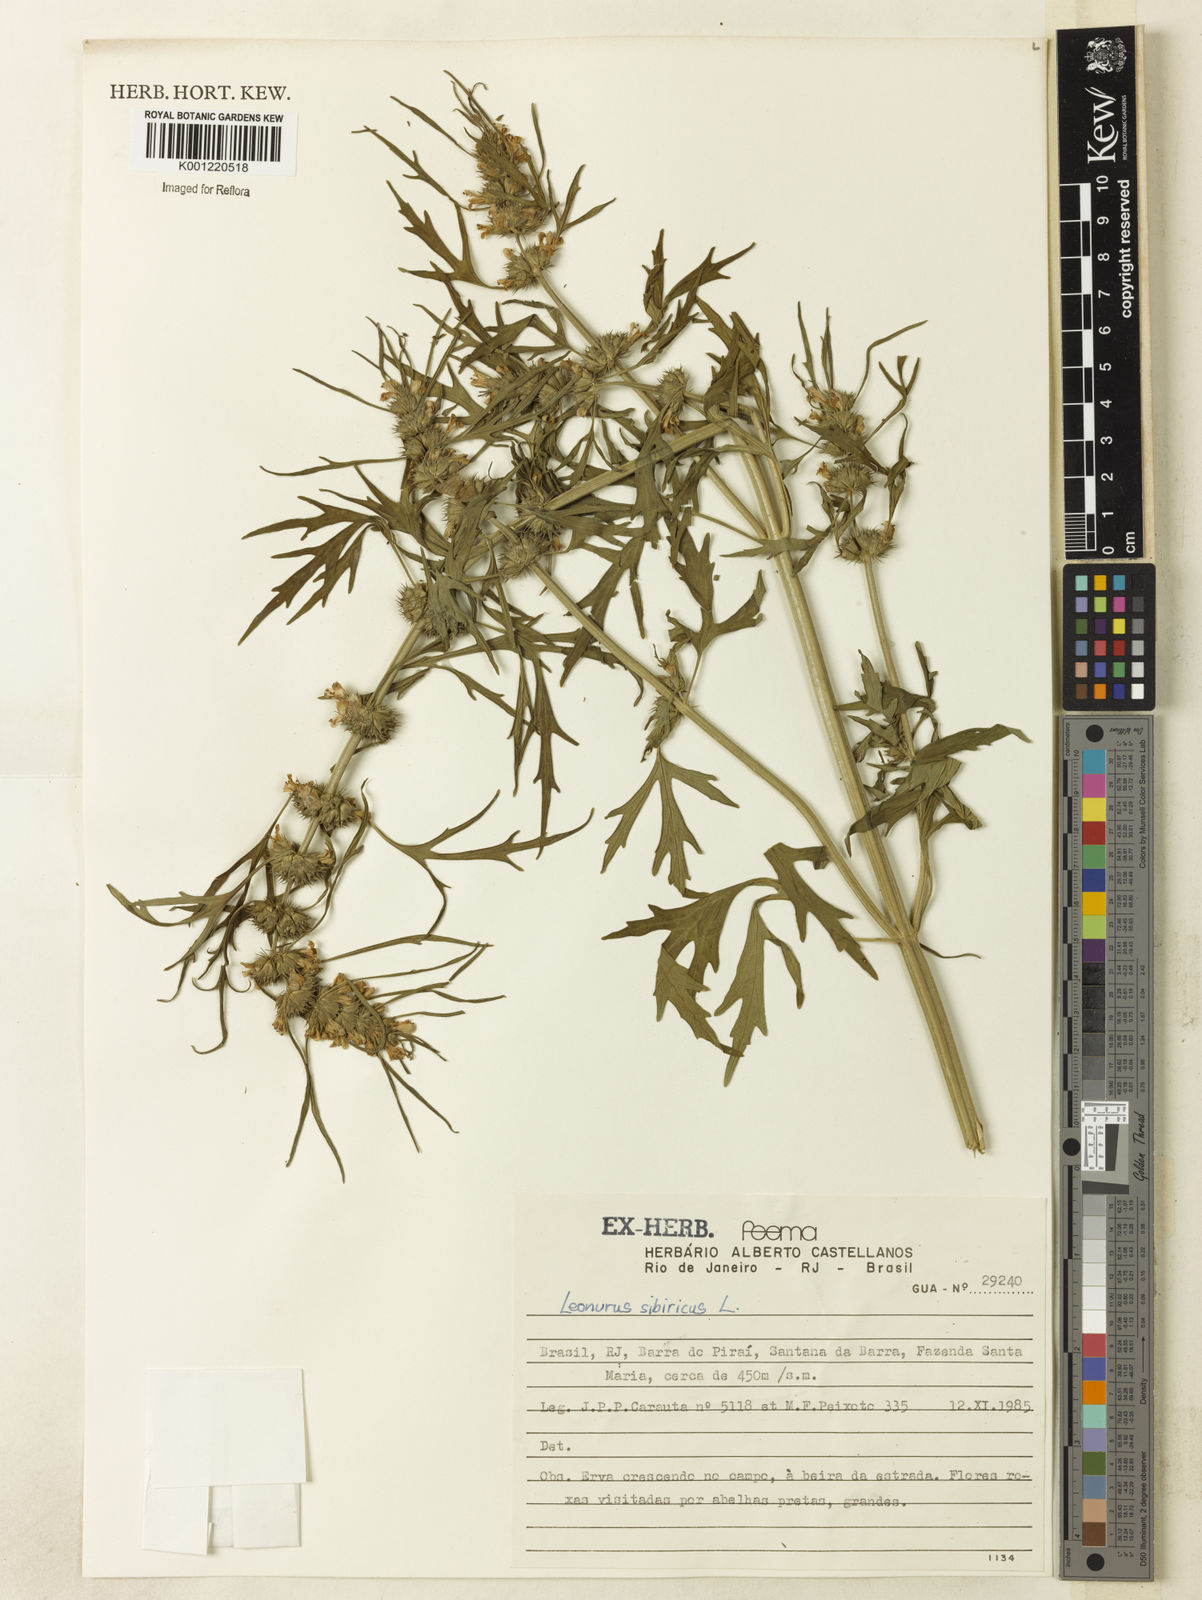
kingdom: Plantae
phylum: Tracheophyta
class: Magnoliopsida
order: Lamiales
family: Lamiaceae
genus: Leonurus
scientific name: Leonurus japonicus
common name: Honeyweed
